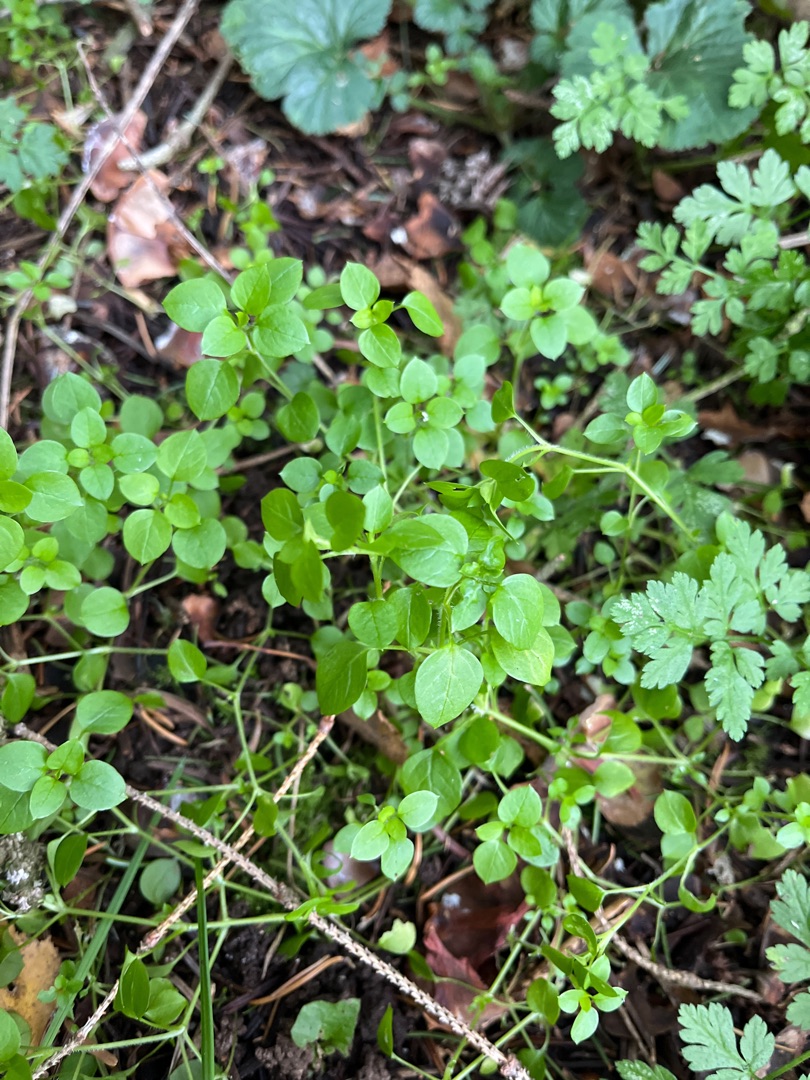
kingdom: Plantae
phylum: Tracheophyta
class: Magnoliopsida
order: Caryophyllales
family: Caryophyllaceae
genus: Stellaria
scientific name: Stellaria media
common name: Almindelig fuglegræs
